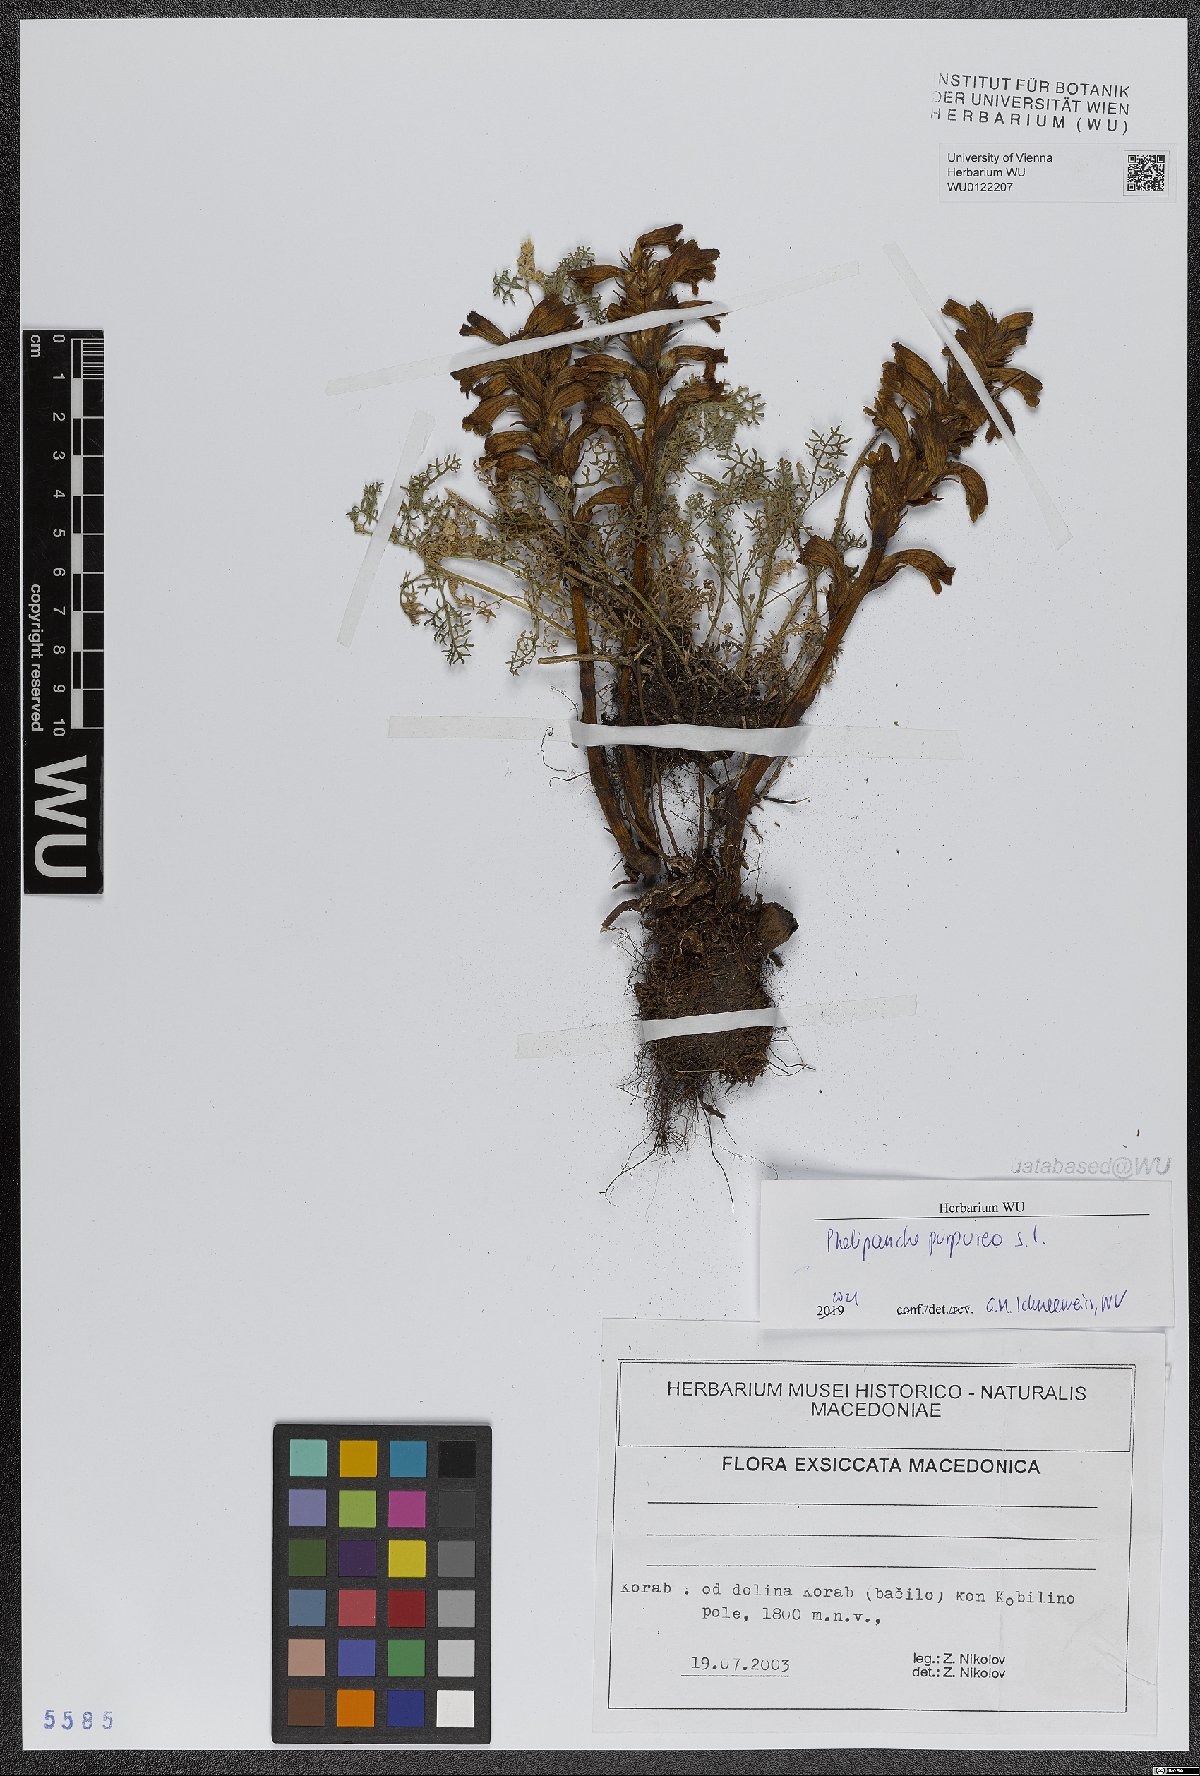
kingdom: Plantae
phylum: Tracheophyta
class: Magnoliopsida
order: Lamiales
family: Orobanchaceae
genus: Phelipanche
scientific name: Phelipanche purpurea
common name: Purple broomrape
